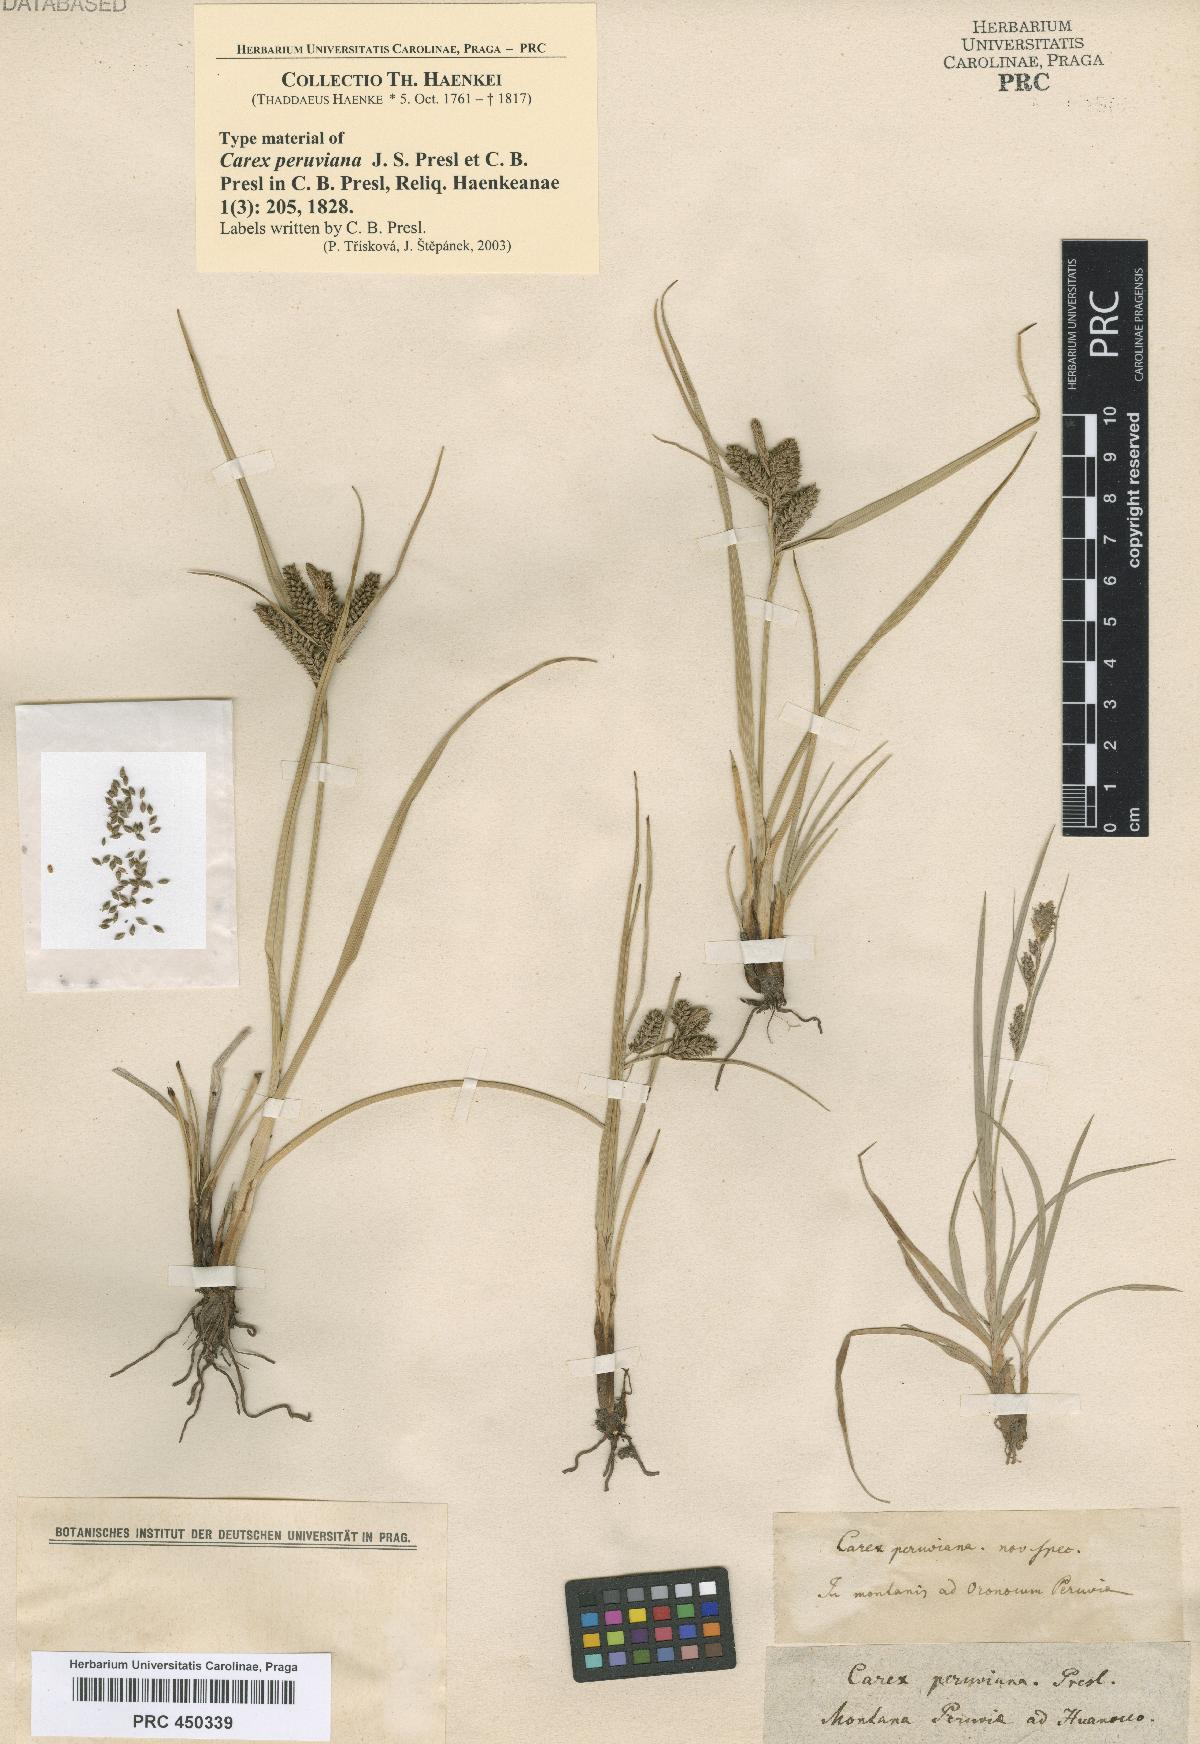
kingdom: Plantae
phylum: Tracheophyta
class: Liliopsida
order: Poales
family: Cyperaceae
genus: Carex
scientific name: Carex peruviana
